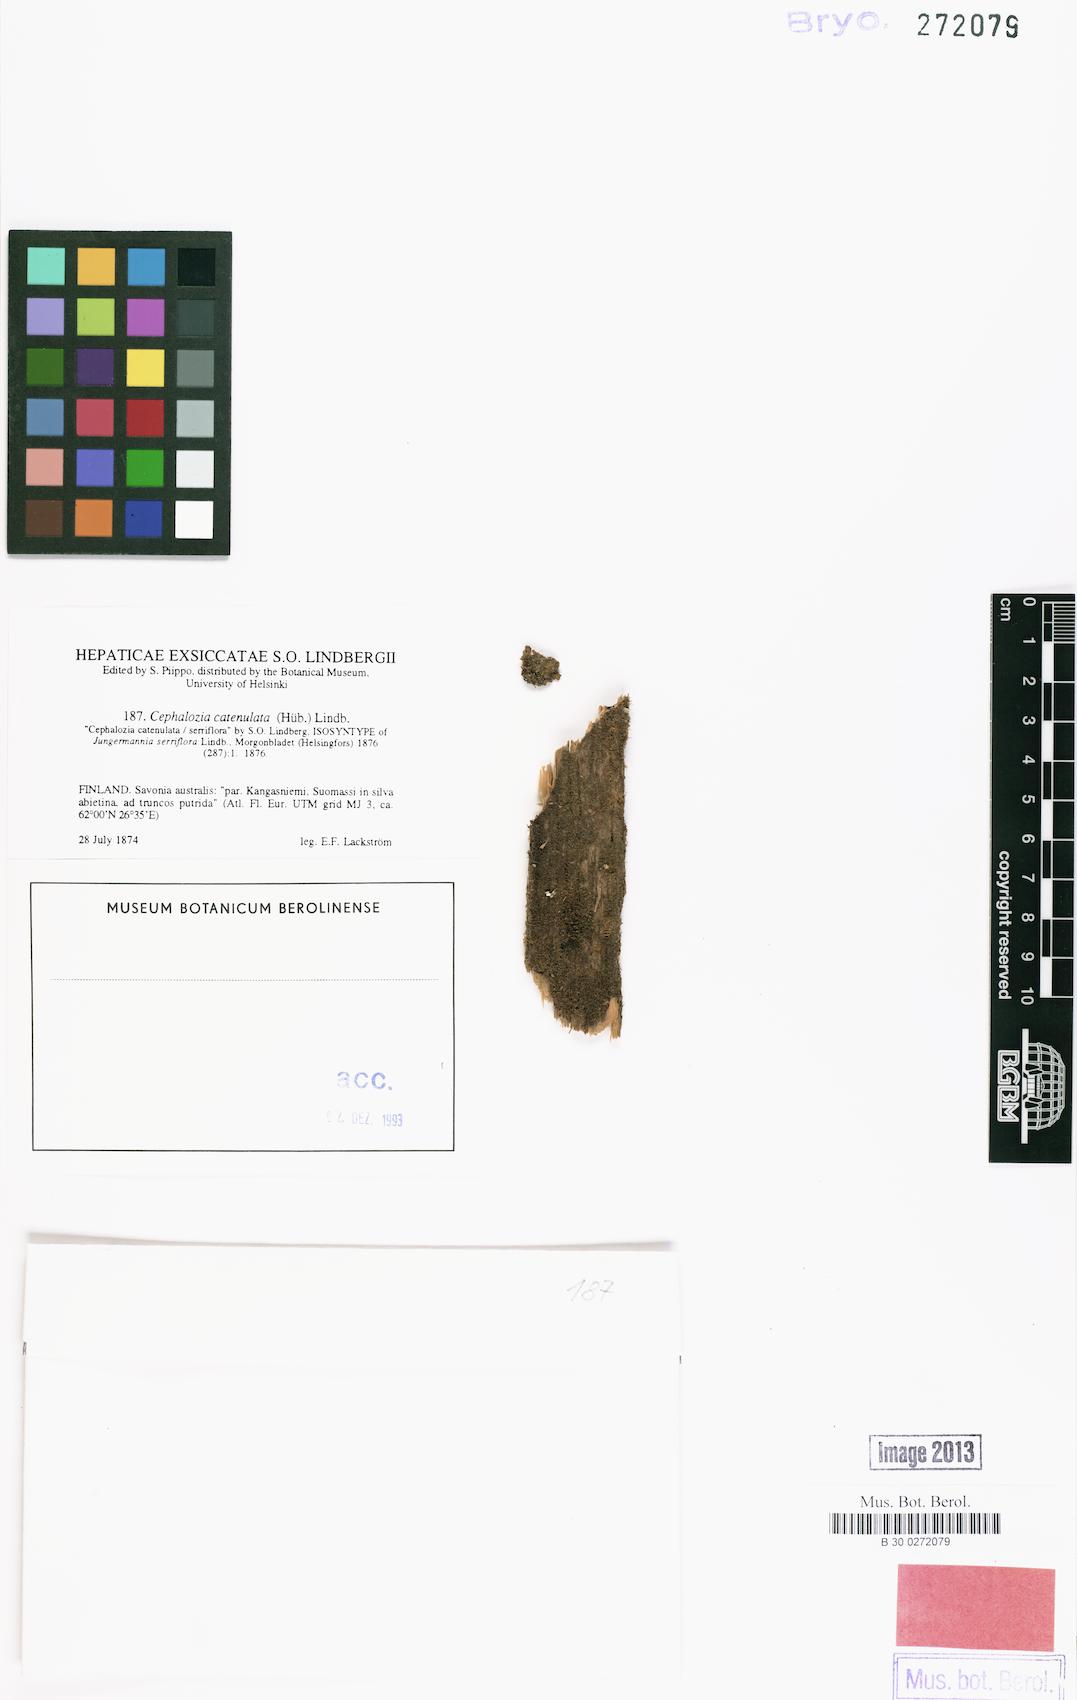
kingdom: Plantae
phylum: Marchantiophyta
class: Jungermanniopsida
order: Jungermanniales
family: Cephaloziaceae
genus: Fuscocephaloziopsis
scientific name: Fuscocephaloziopsis catenulata
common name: Chain pincerwort
